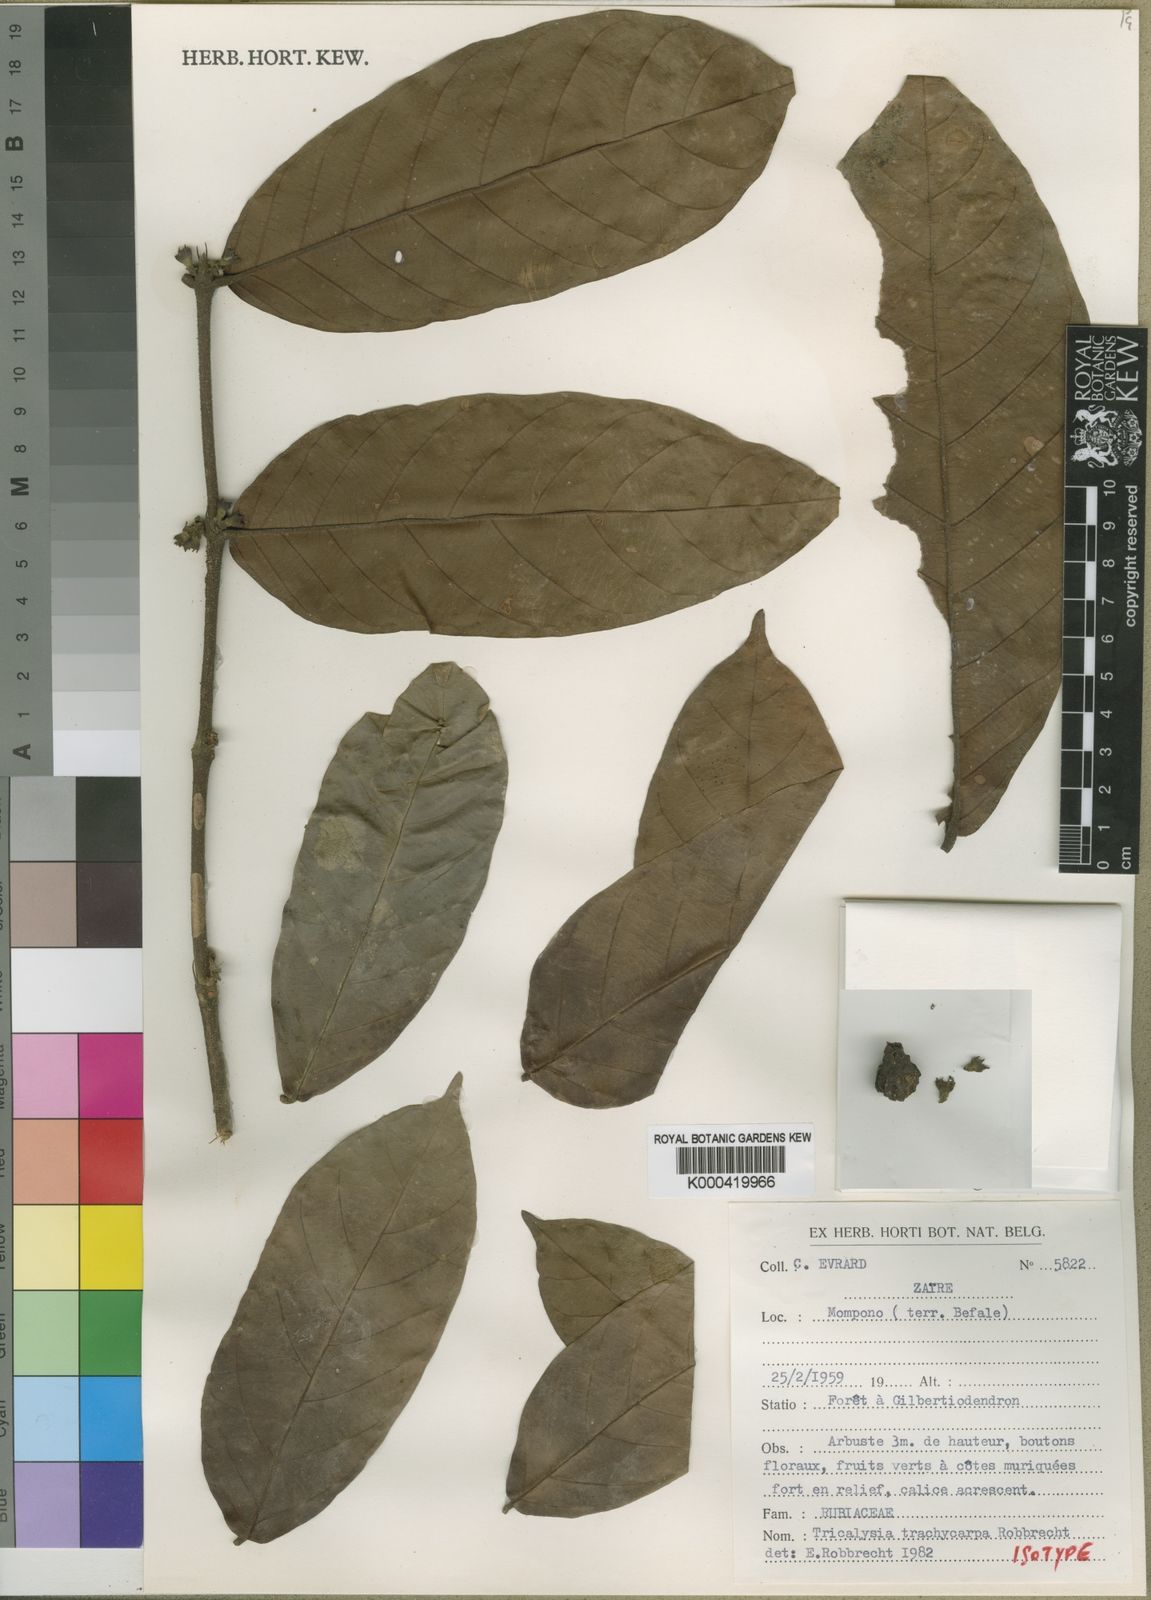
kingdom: Plantae
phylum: Tracheophyta
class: Magnoliopsida
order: Gentianales
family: Rubiaceae
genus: Tricalysia
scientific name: Tricalysia trachycarpa
